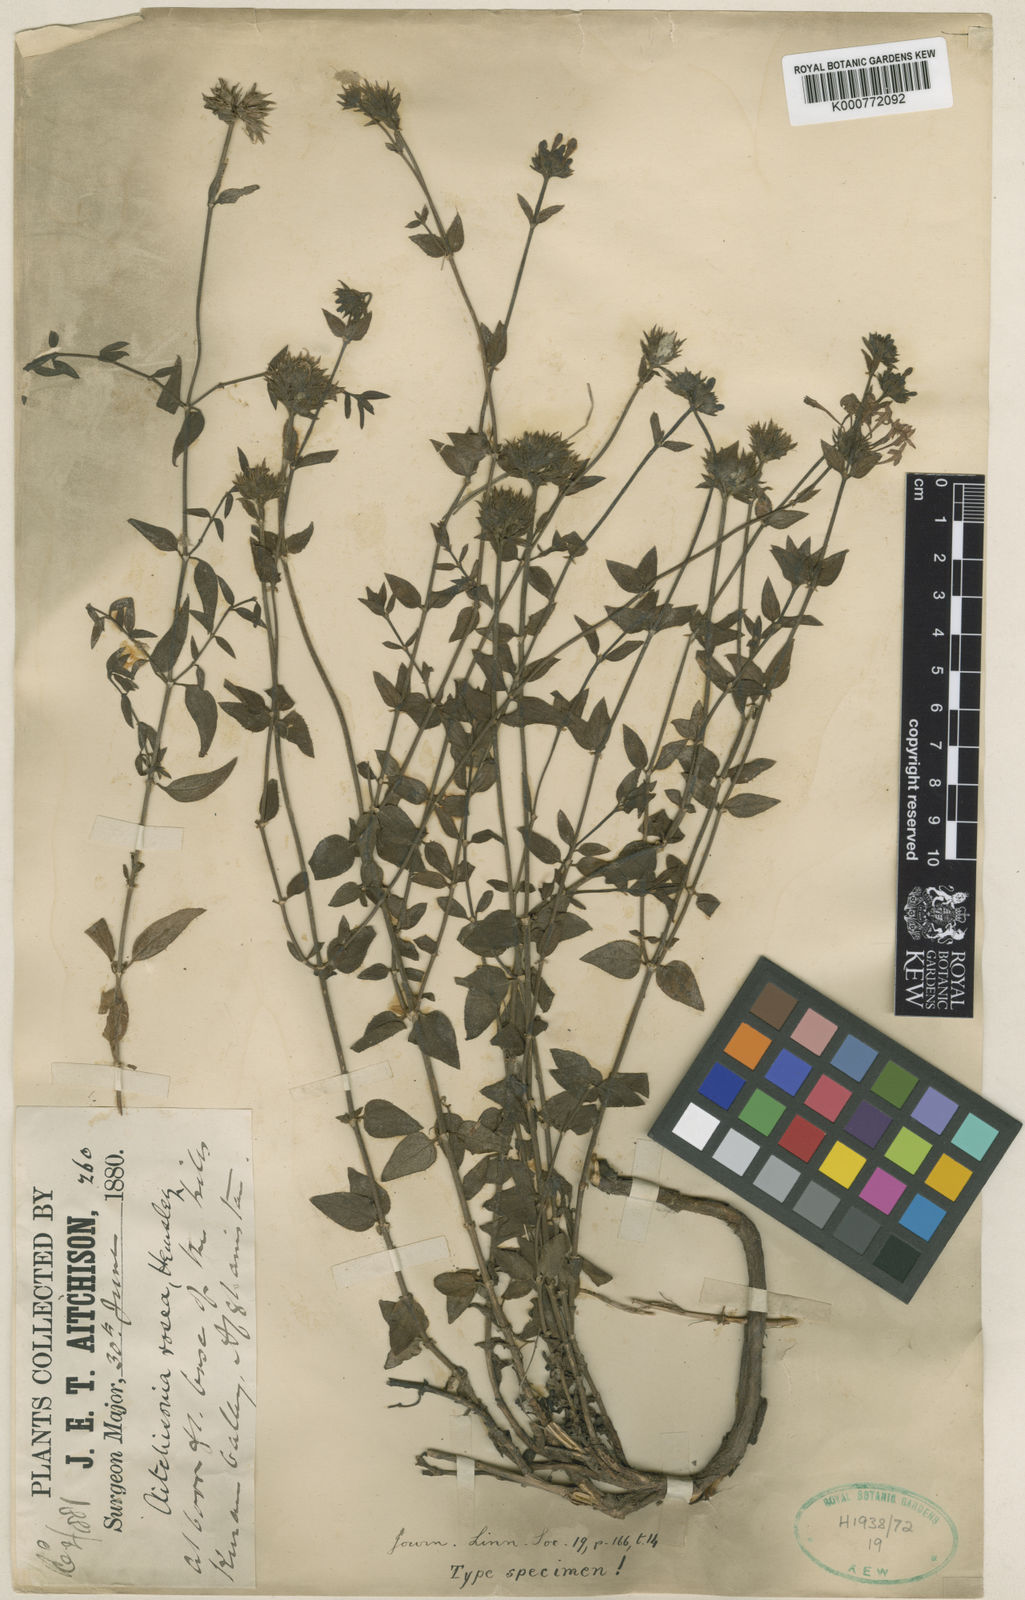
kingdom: Plantae
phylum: Tracheophyta
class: Magnoliopsida
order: Gentianales
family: Rubiaceae
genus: Aitchisonia
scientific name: Aitchisonia rosea
